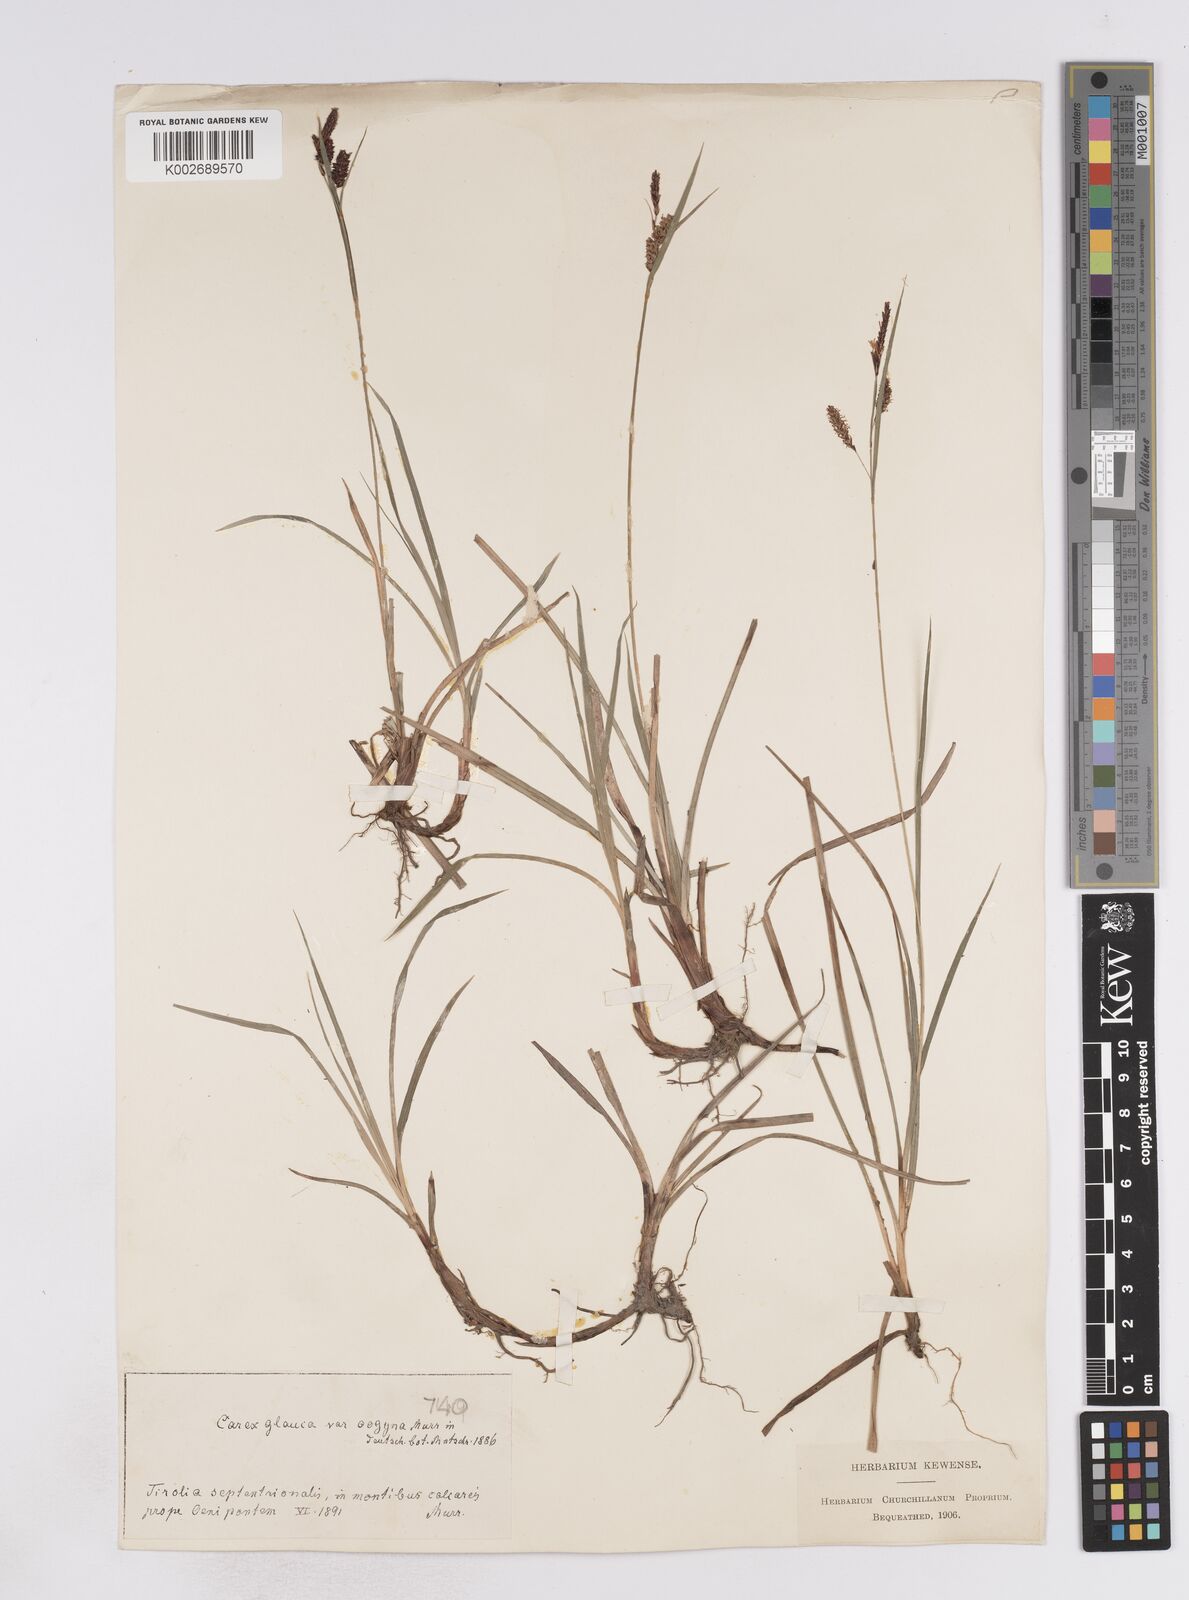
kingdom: Plantae
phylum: Tracheophyta
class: Liliopsida
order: Poales
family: Cyperaceae
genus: Carex
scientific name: Carex flacca
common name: Glaucous sedge
